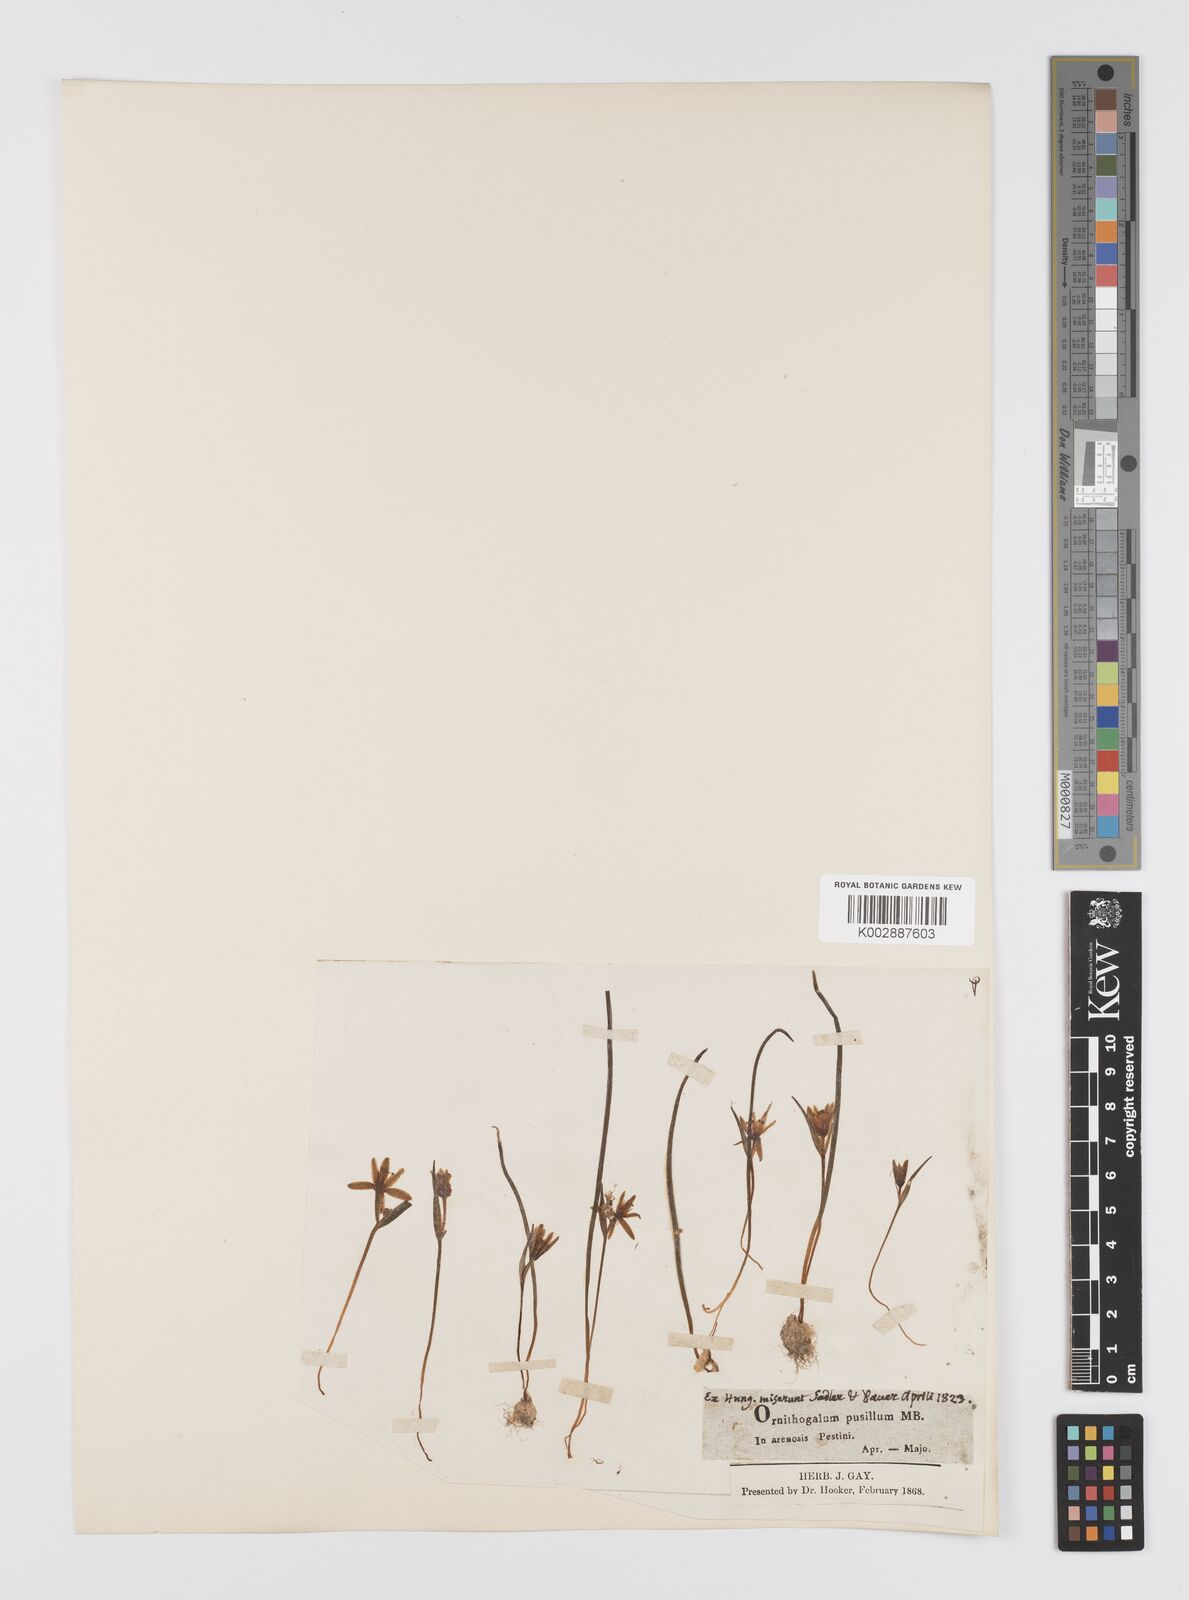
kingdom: Plantae
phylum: Tracheophyta
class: Liliopsida
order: Liliales
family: Liliaceae
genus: Gagea
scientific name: Gagea pusilla
